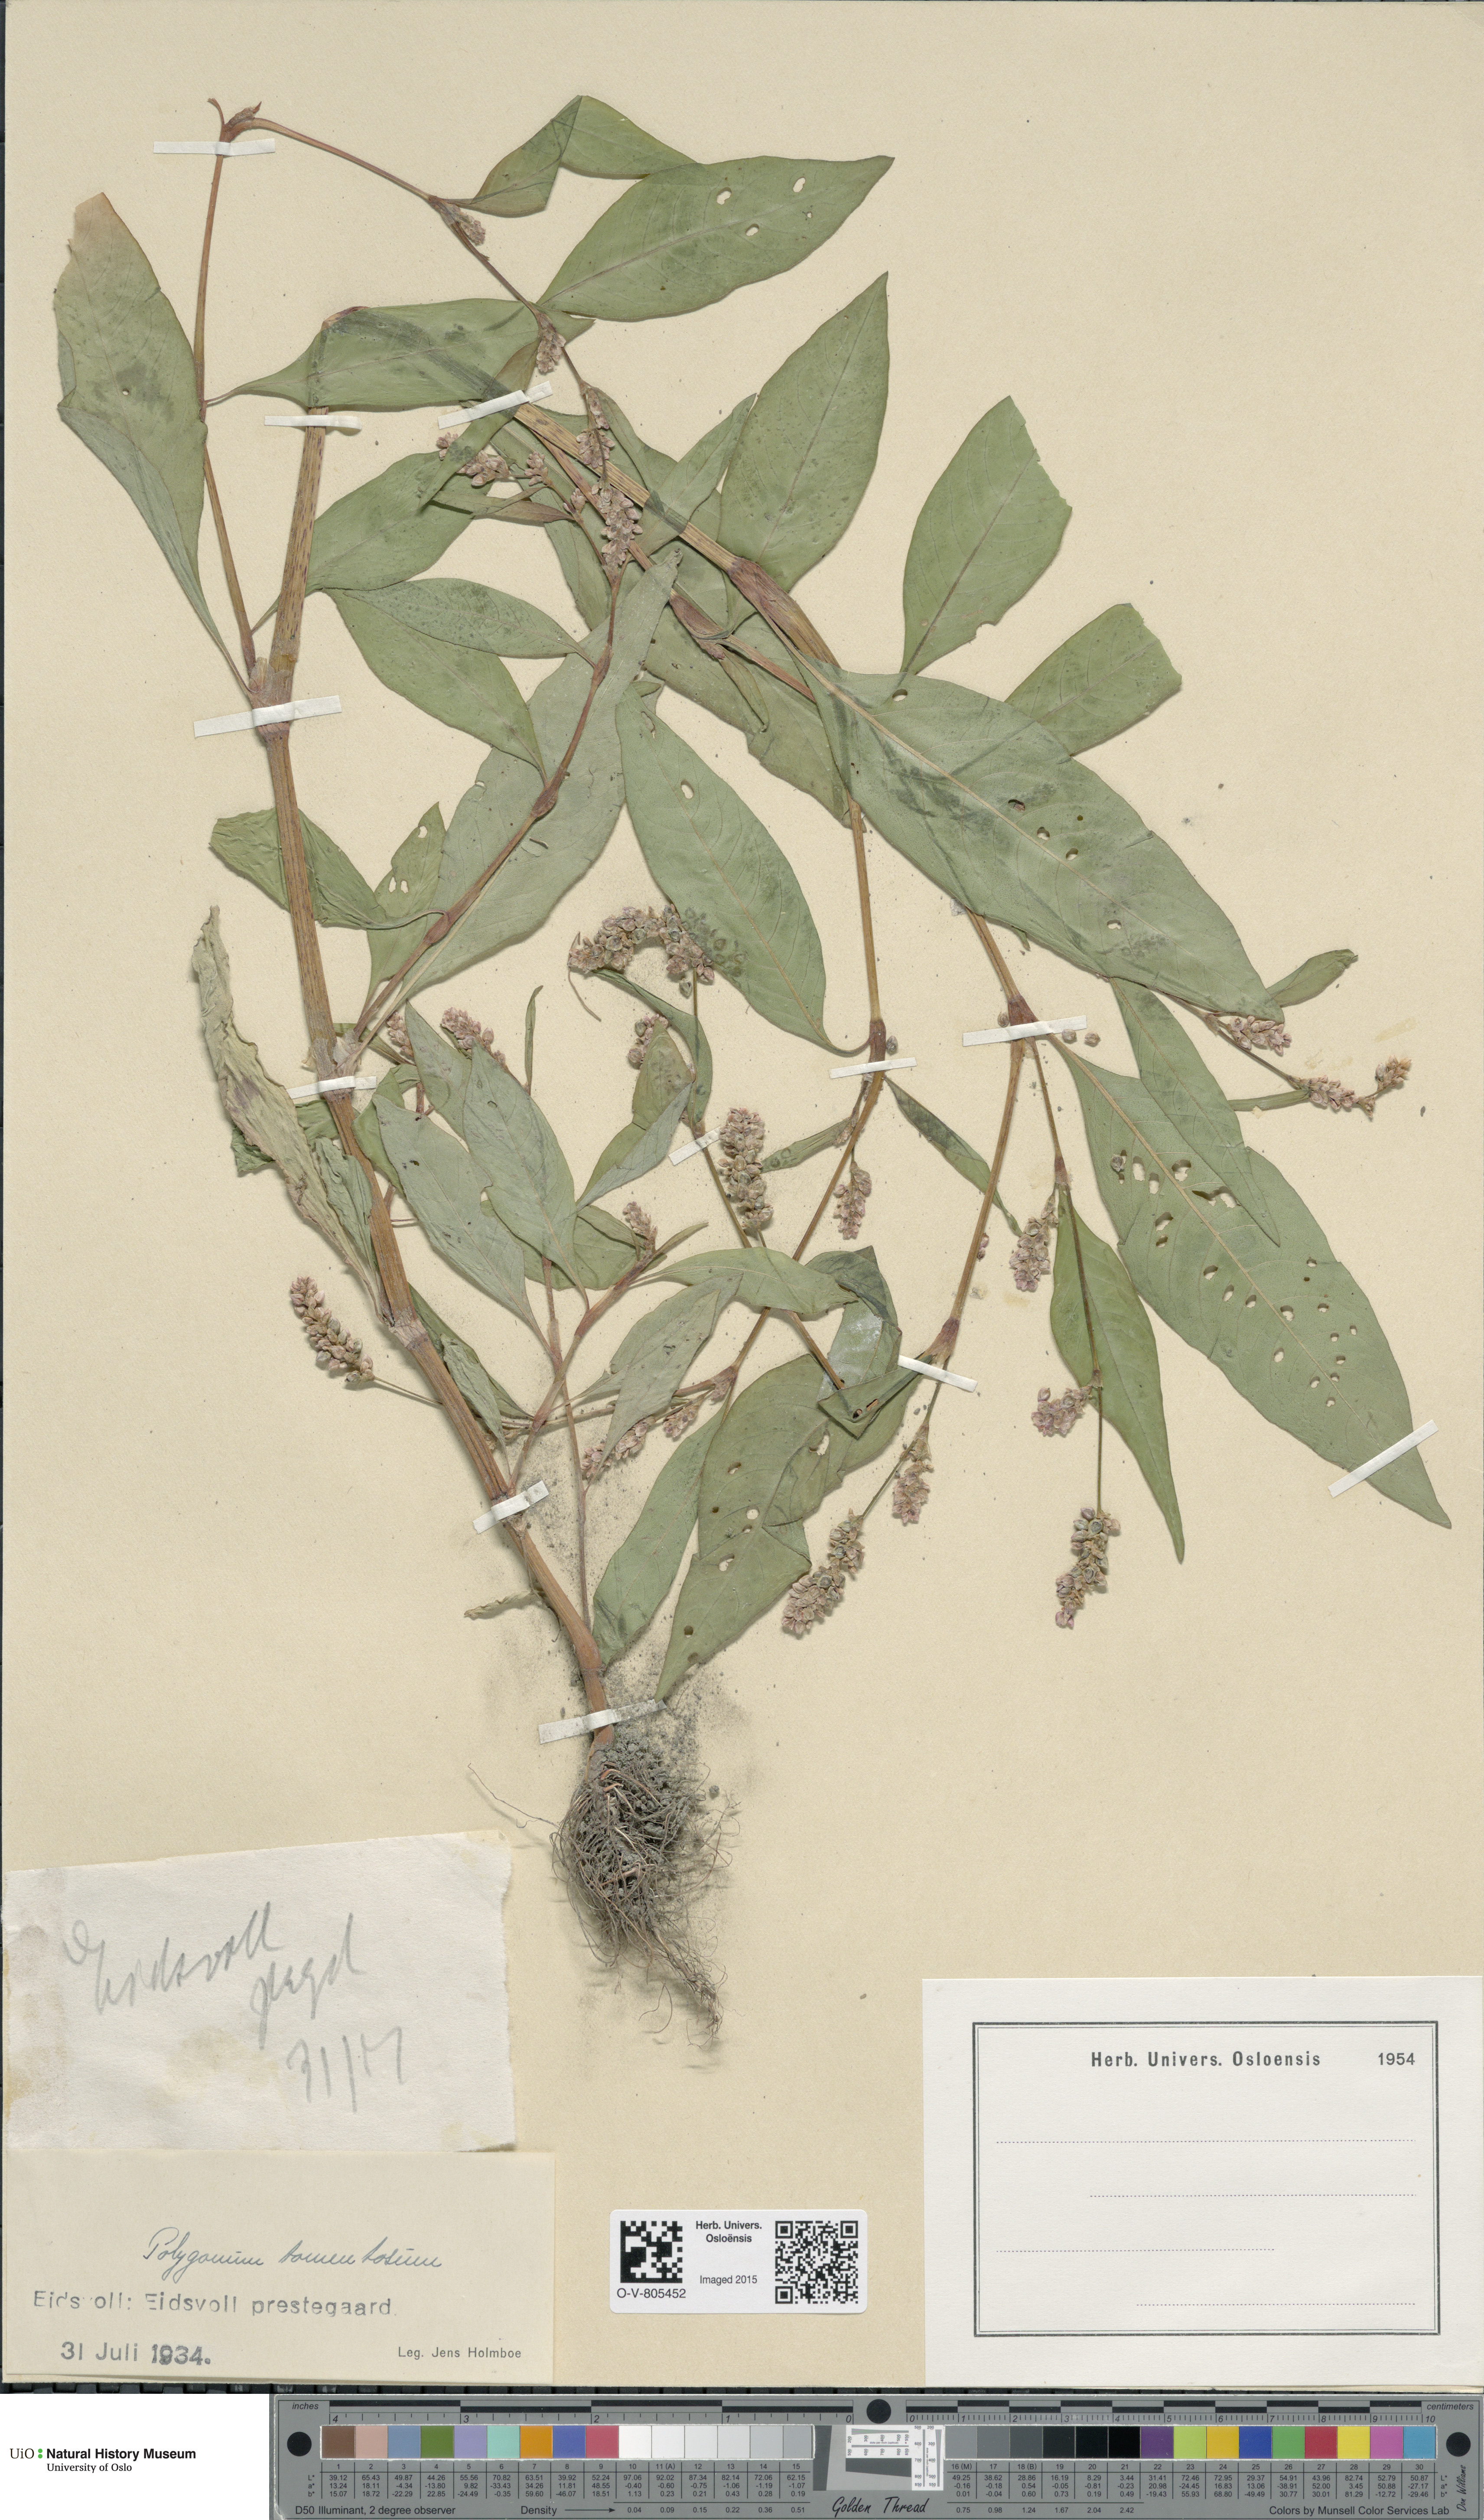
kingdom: Plantae
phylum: Tracheophyta
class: Magnoliopsida
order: Caryophyllales
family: Polygonaceae
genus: Persicaria
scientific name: Persicaria lapathifolia
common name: Curlytop knotweed
